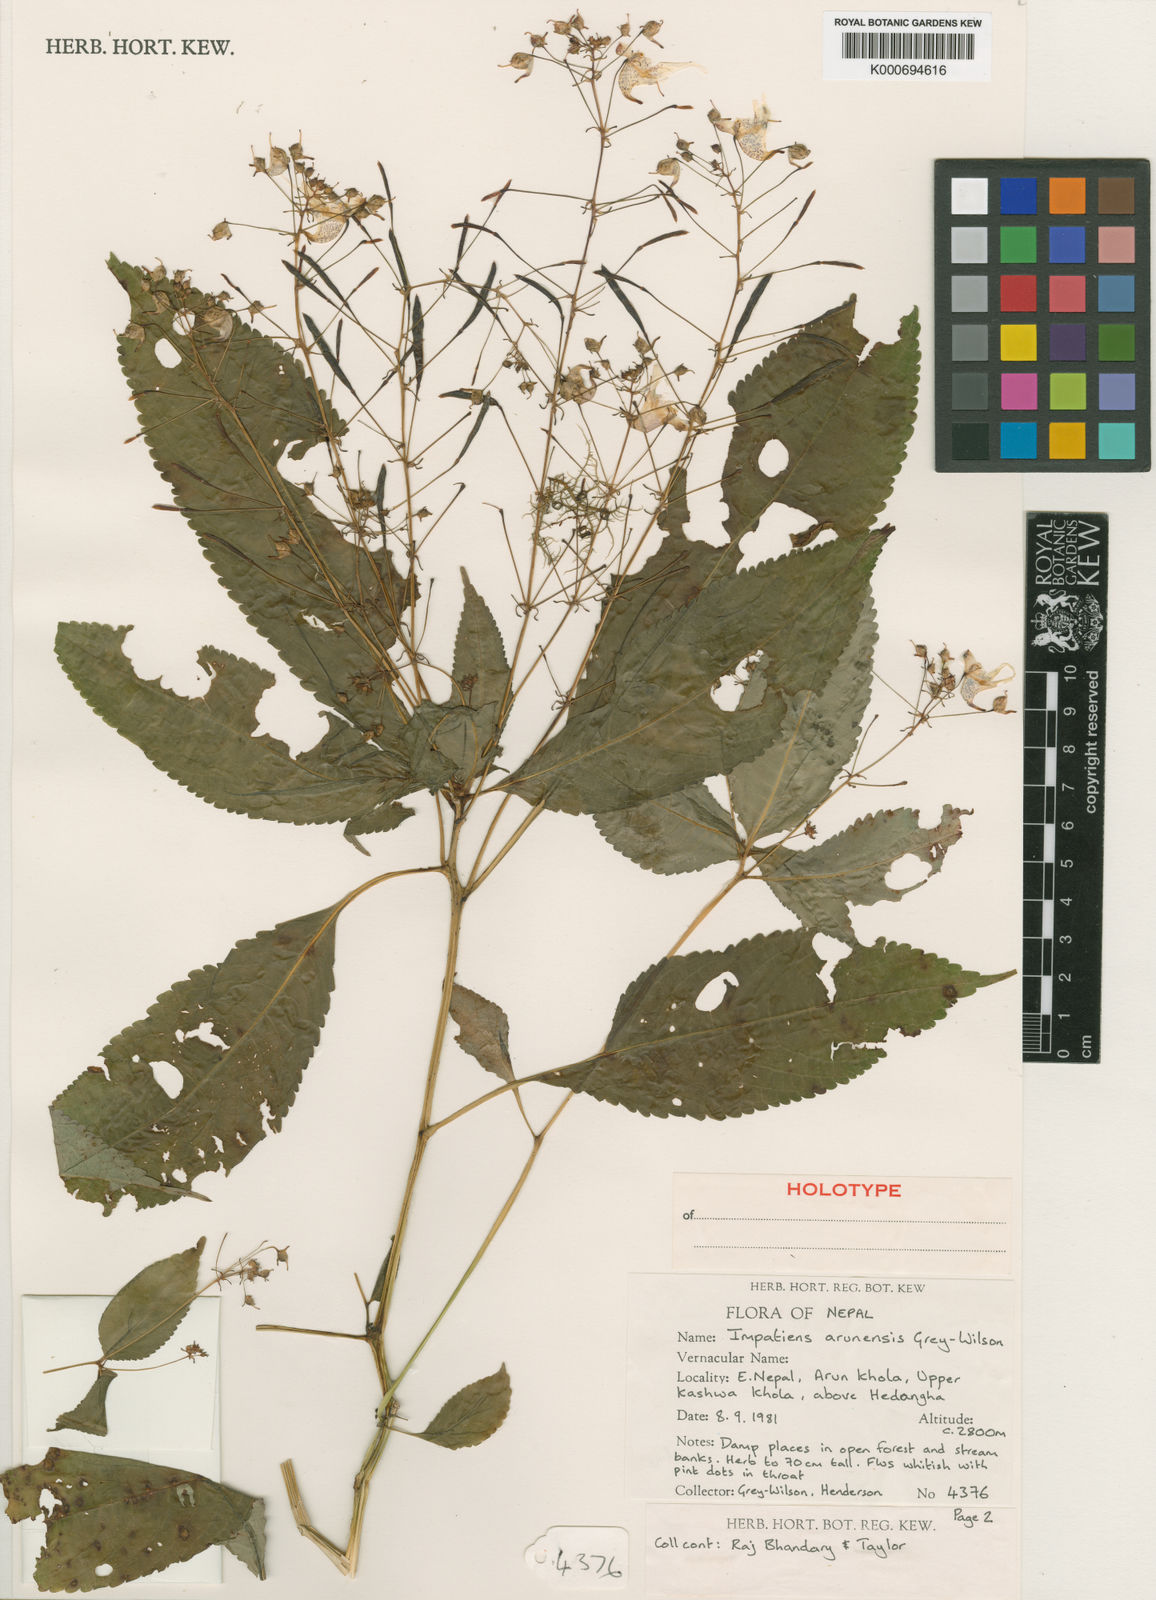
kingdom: Plantae
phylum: Tracheophyta
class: Magnoliopsida
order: Ericales
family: Balsaminaceae
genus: Impatiens
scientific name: Impatiens bicornuta
